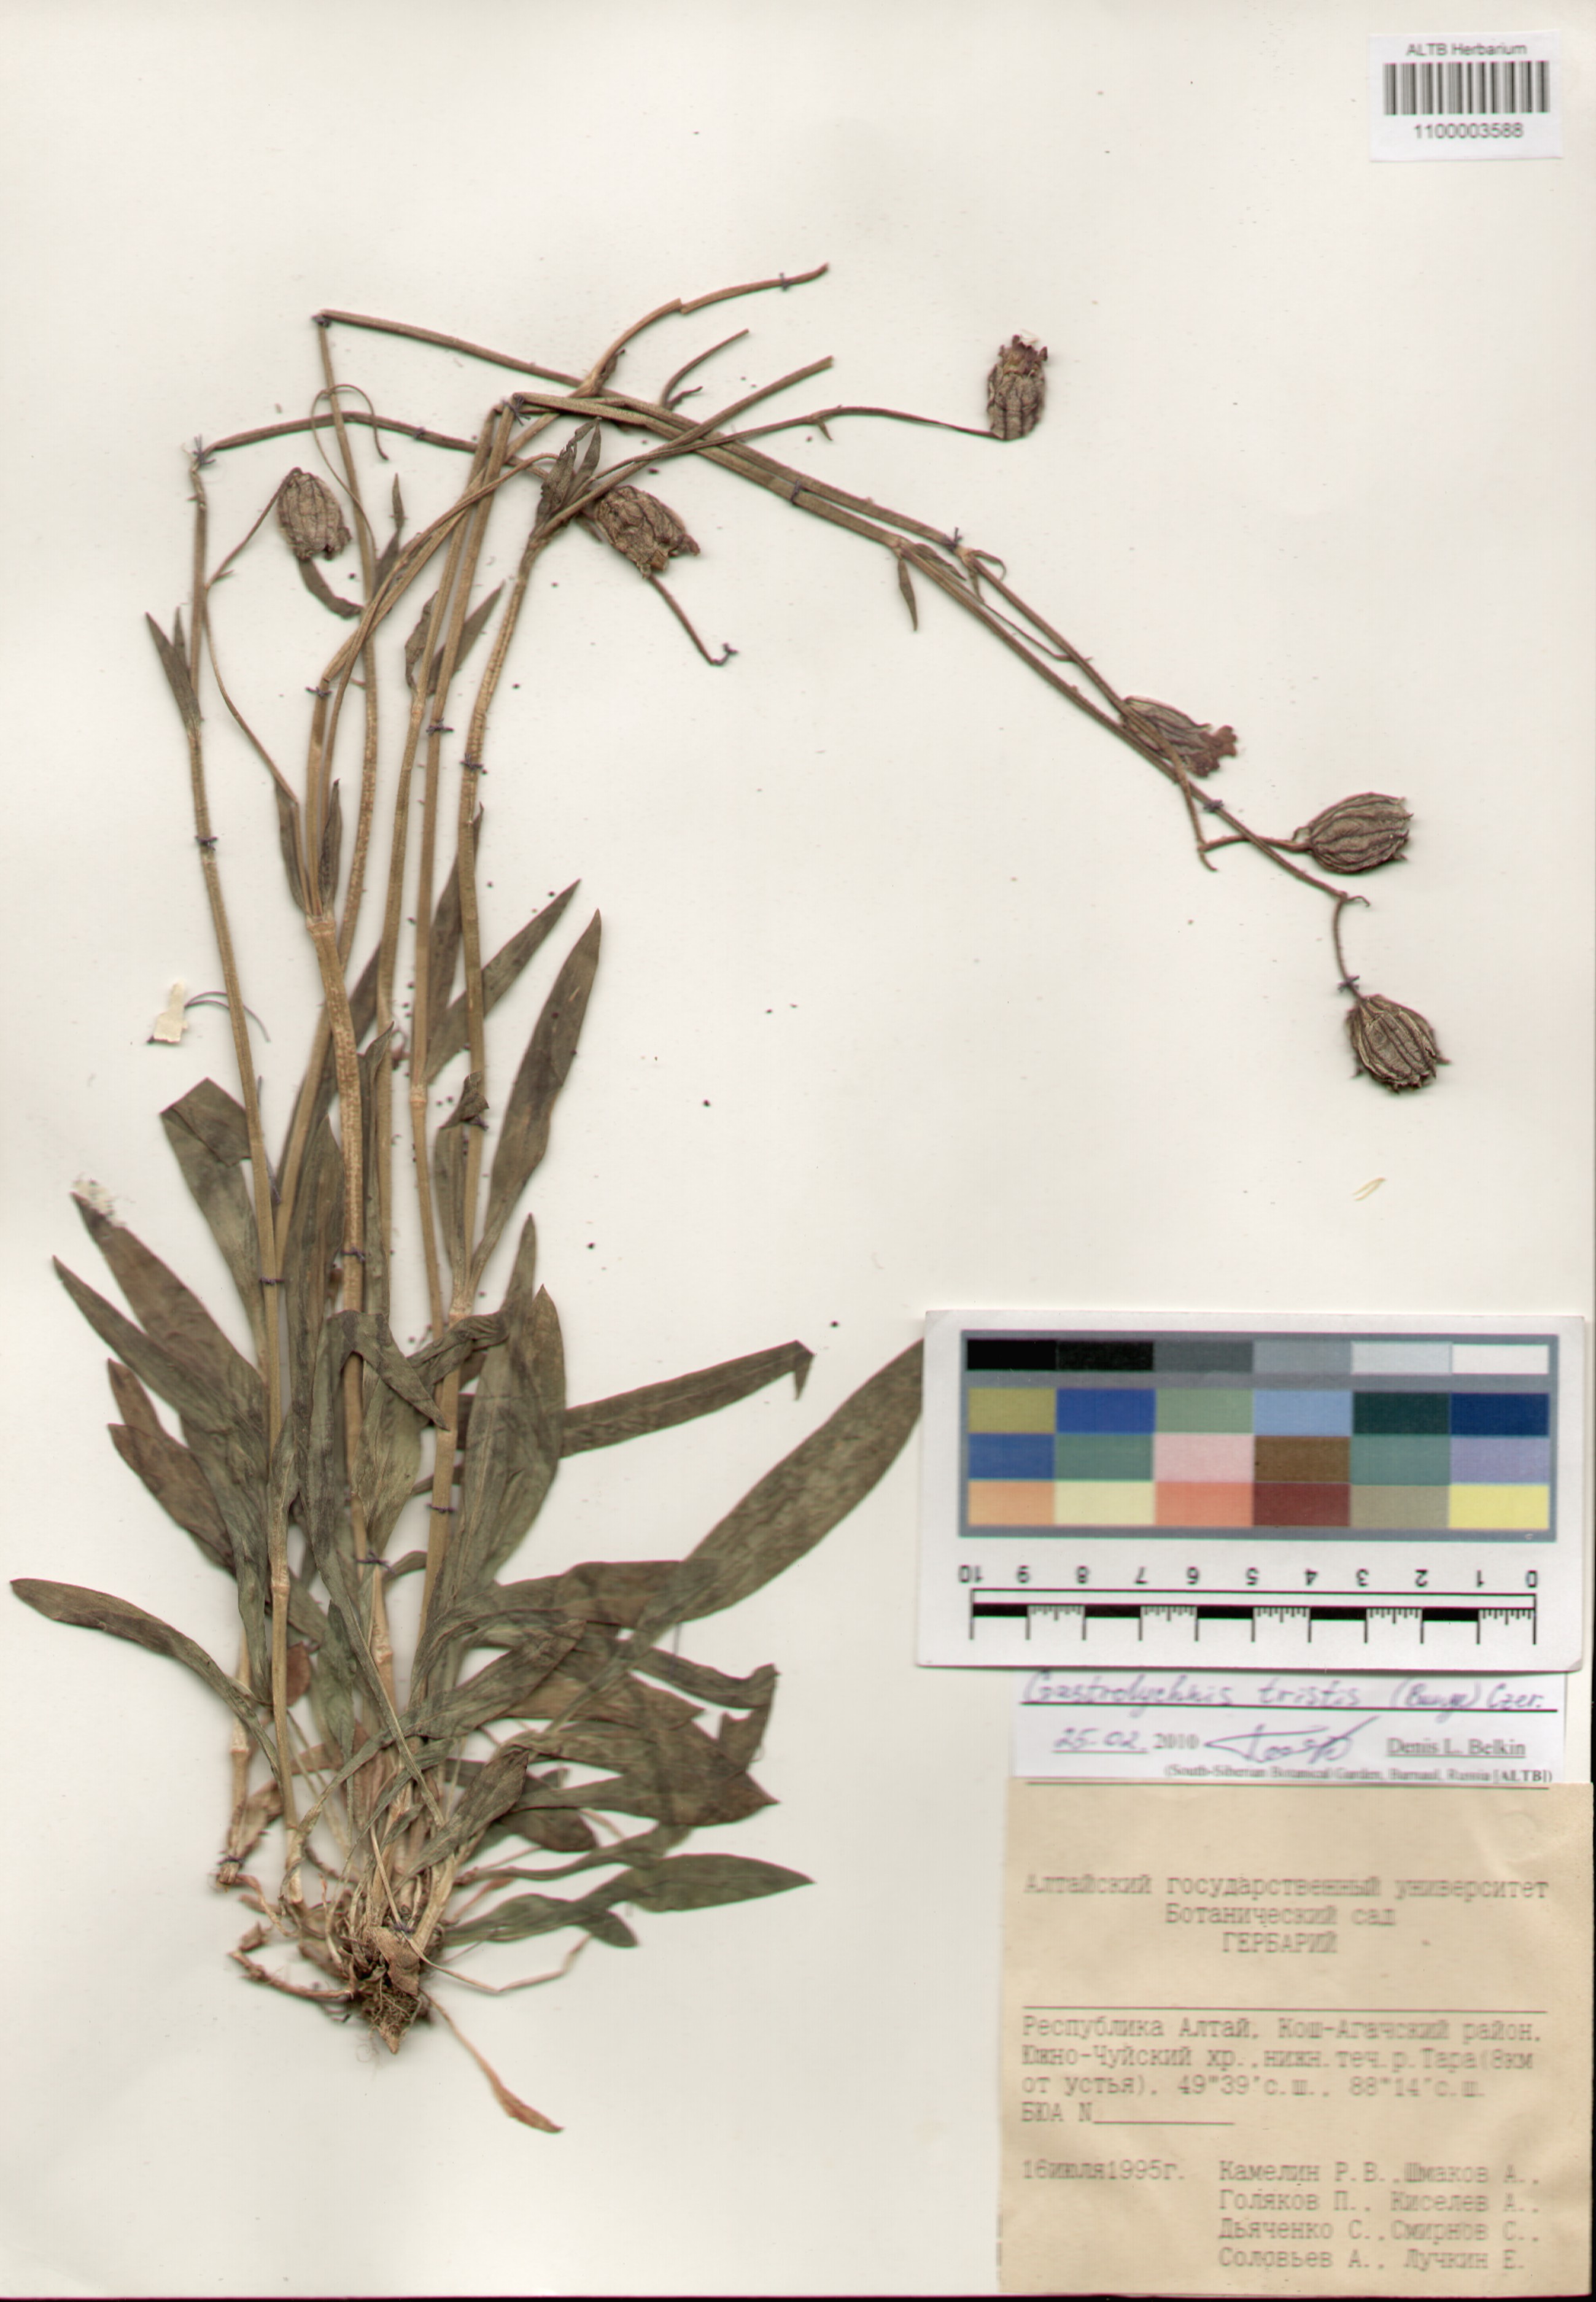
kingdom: Plantae
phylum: Tracheophyta
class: Magnoliopsida
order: Caryophyllales
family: Caryophyllaceae
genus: Silene
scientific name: Silene bungei
